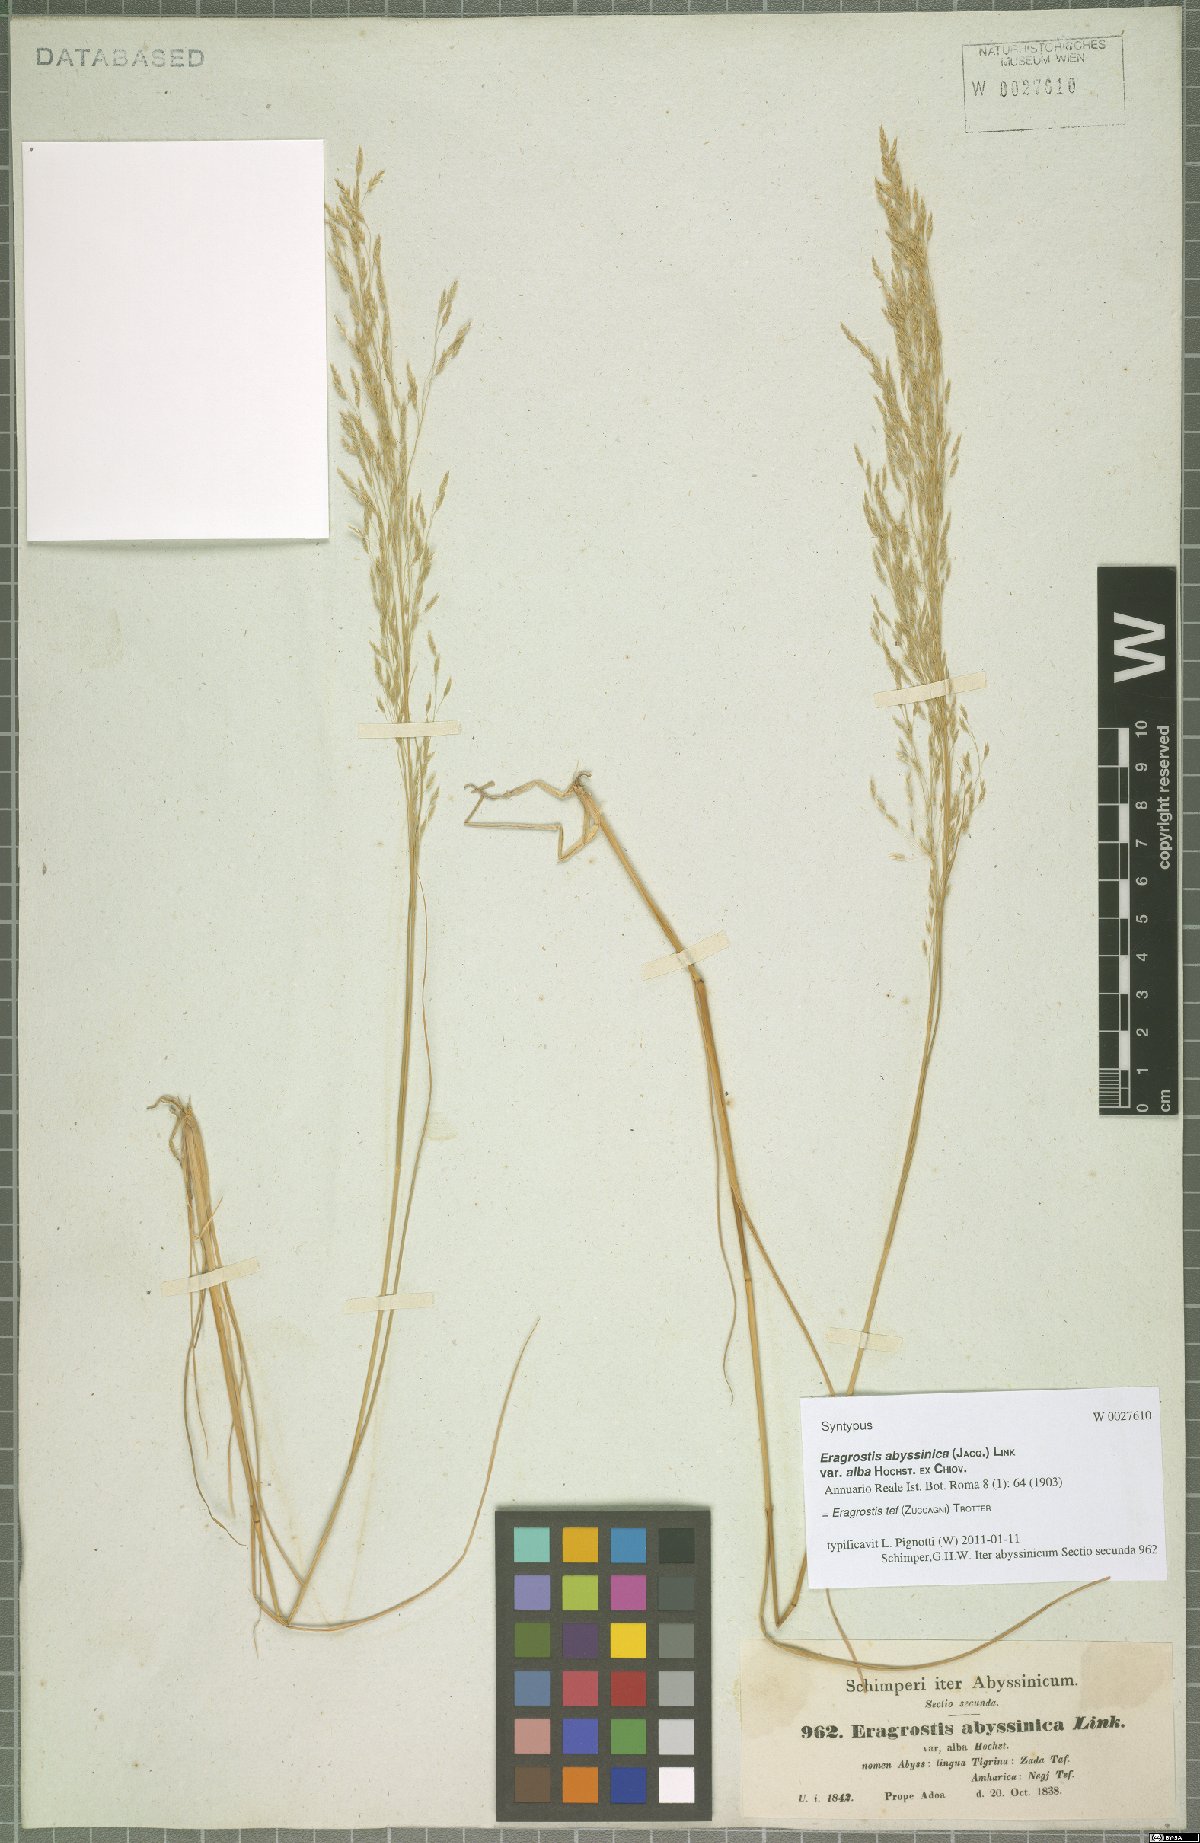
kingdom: Plantae
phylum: Tracheophyta
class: Liliopsida
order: Poales
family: Poaceae
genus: Eragrostis
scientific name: Eragrostis tef
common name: Teff
